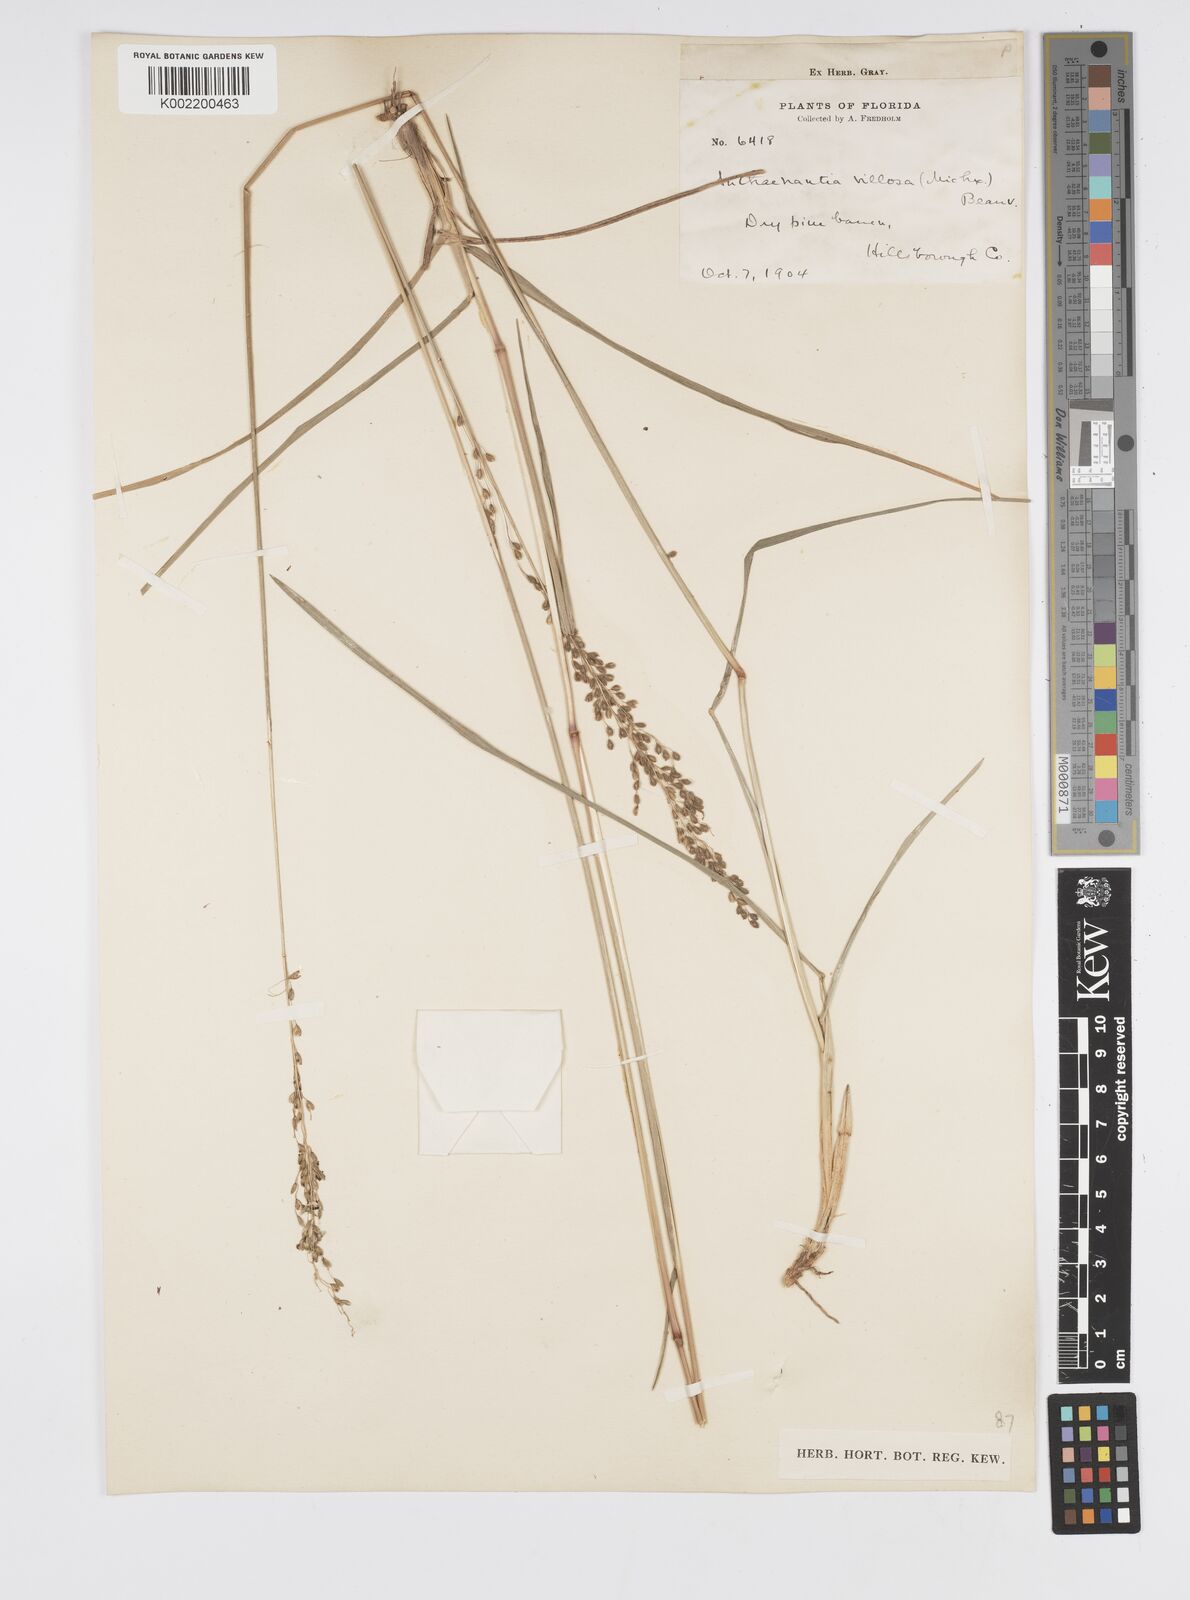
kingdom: Plantae
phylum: Tracheophyta
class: Liliopsida
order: Poales
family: Poaceae
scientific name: Poaceae
